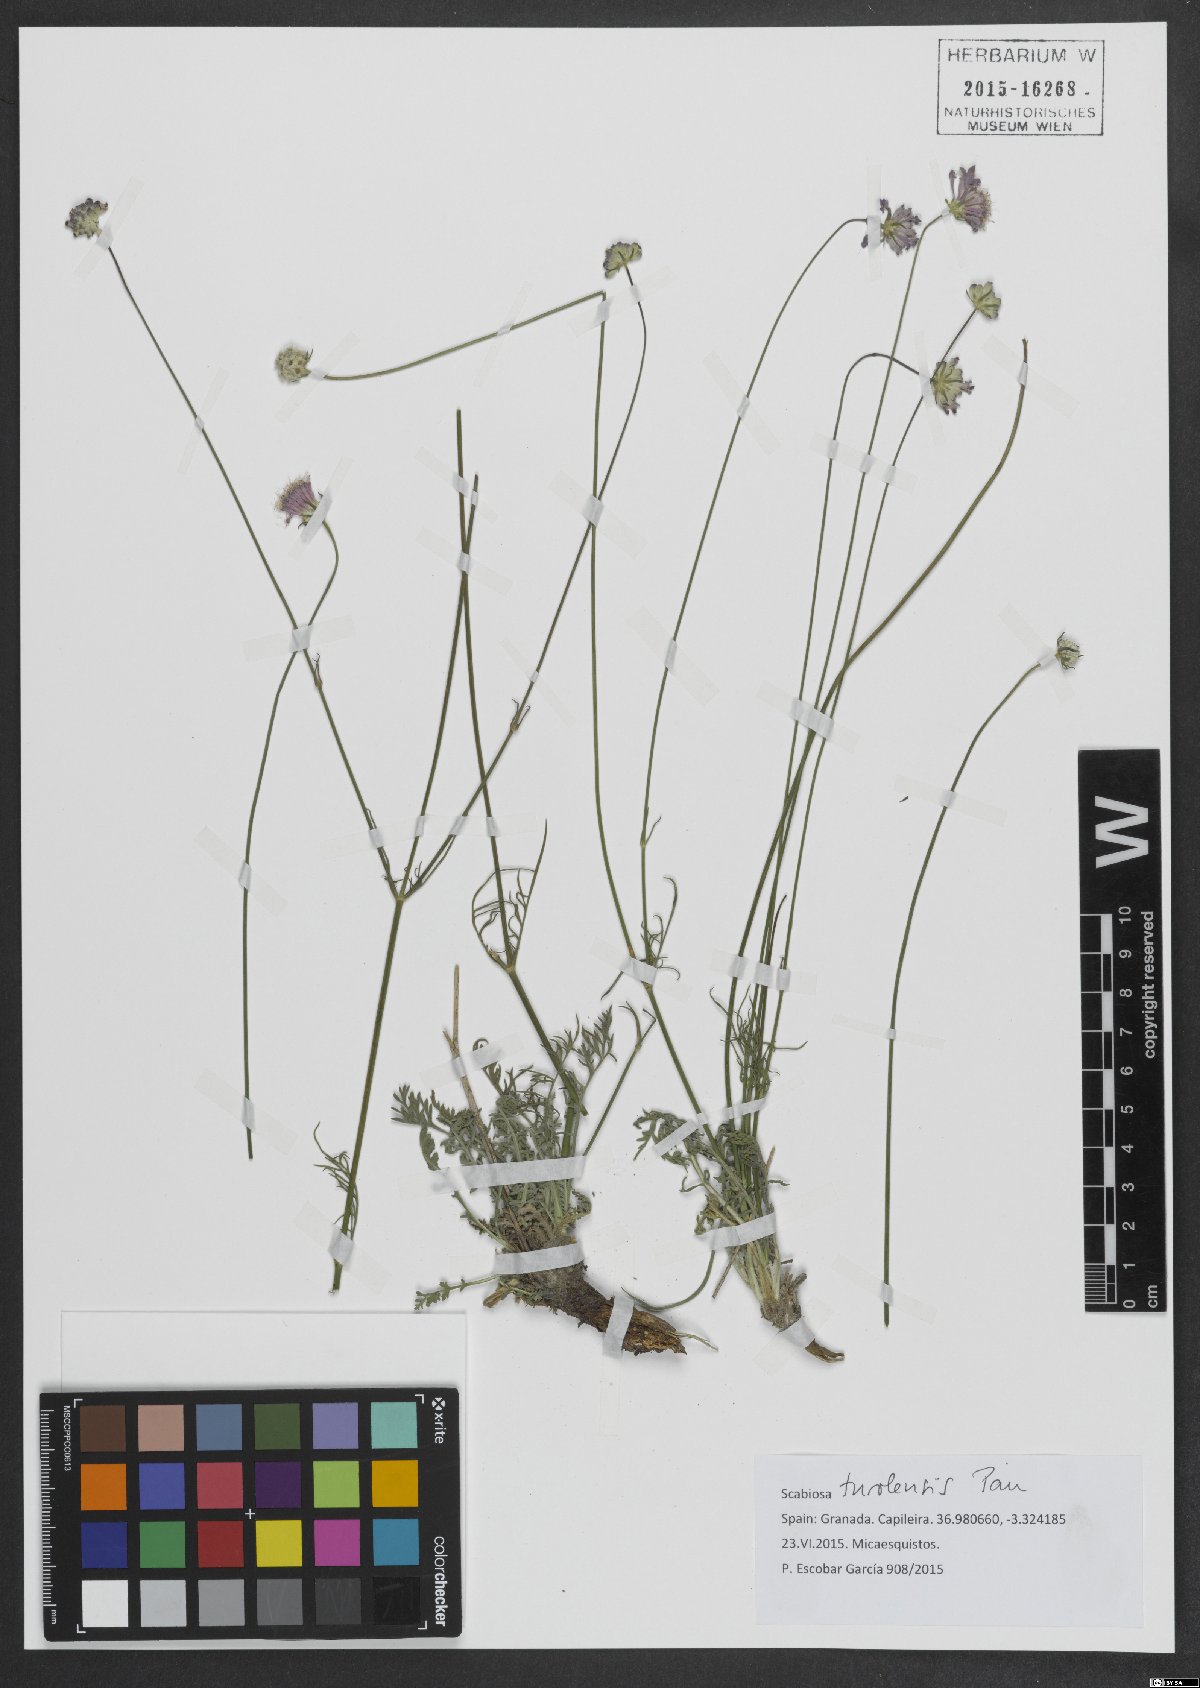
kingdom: Plantae
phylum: Tracheophyta
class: Magnoliopsida
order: Dipsacales
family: Caprifoliaceae
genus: Scabiosa
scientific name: Scabiosa turolensis
